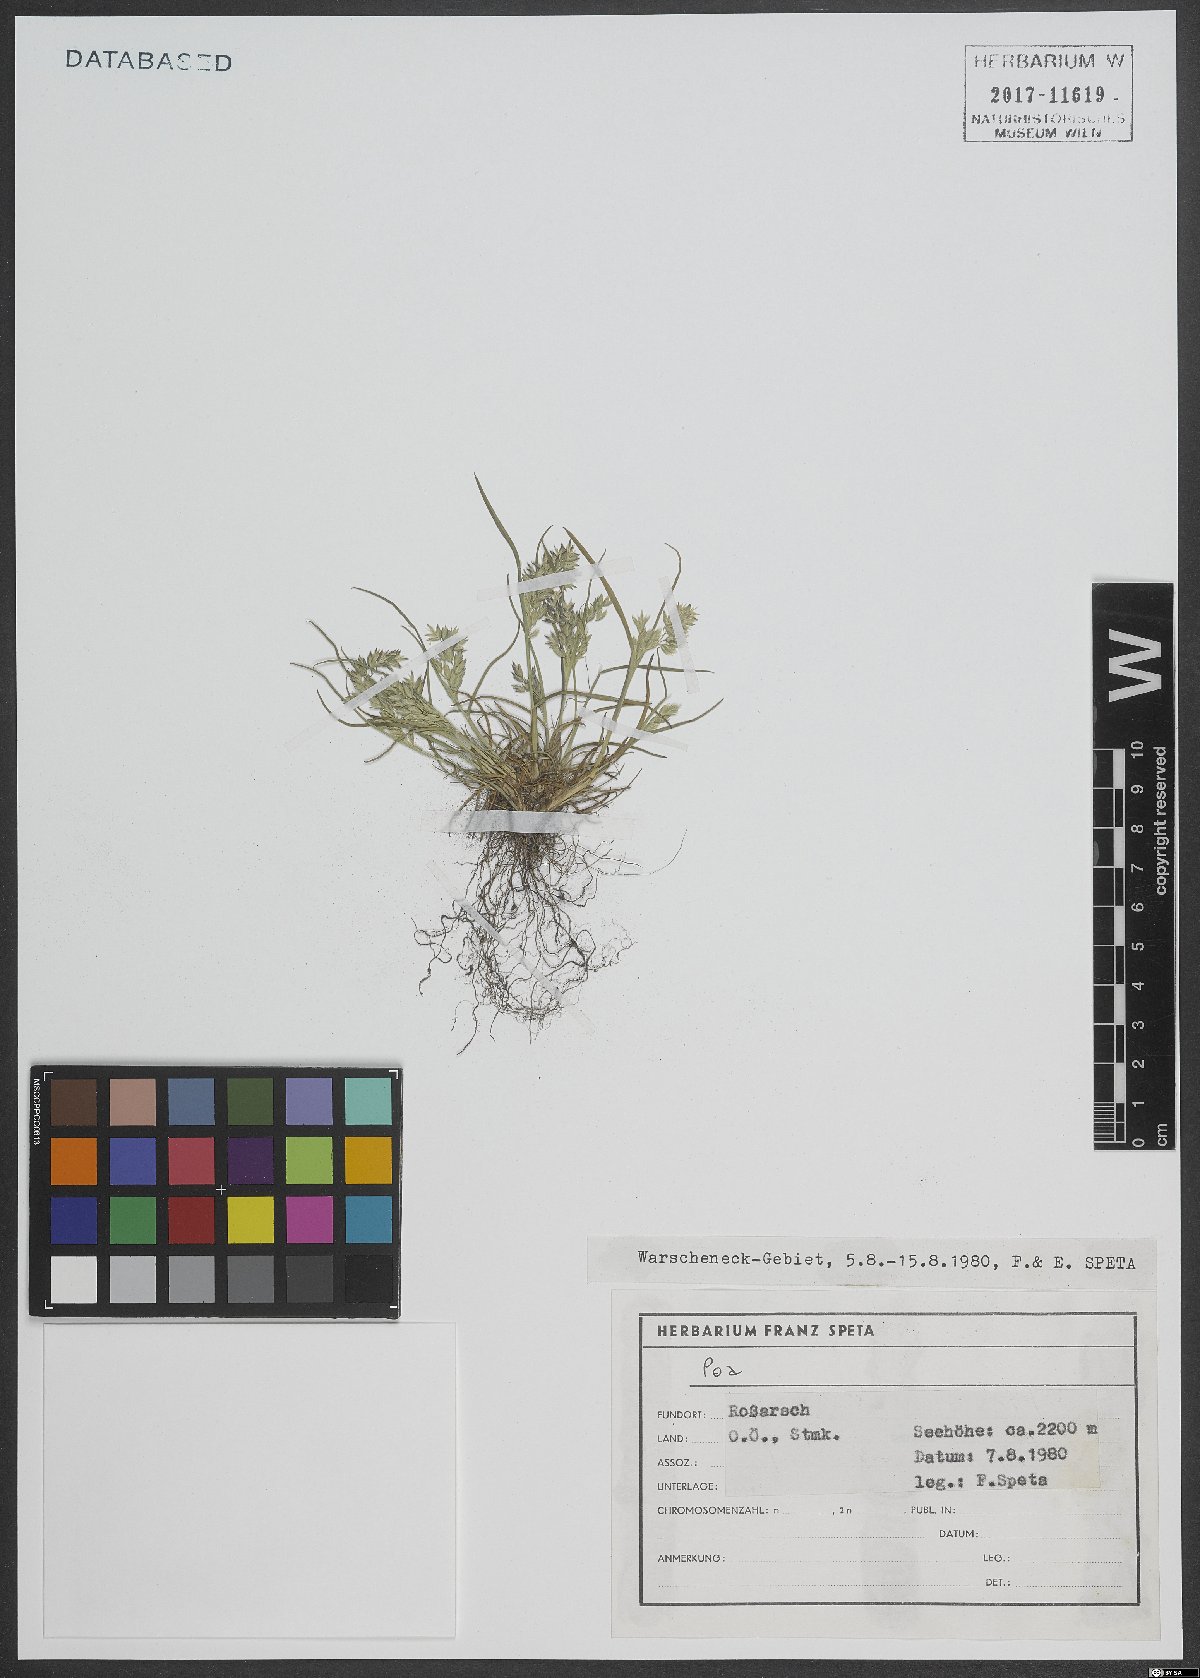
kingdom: Plantae
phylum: Tracheophyta
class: Liliopsida
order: Poales
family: Poaceae
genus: Poa
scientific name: Poa
